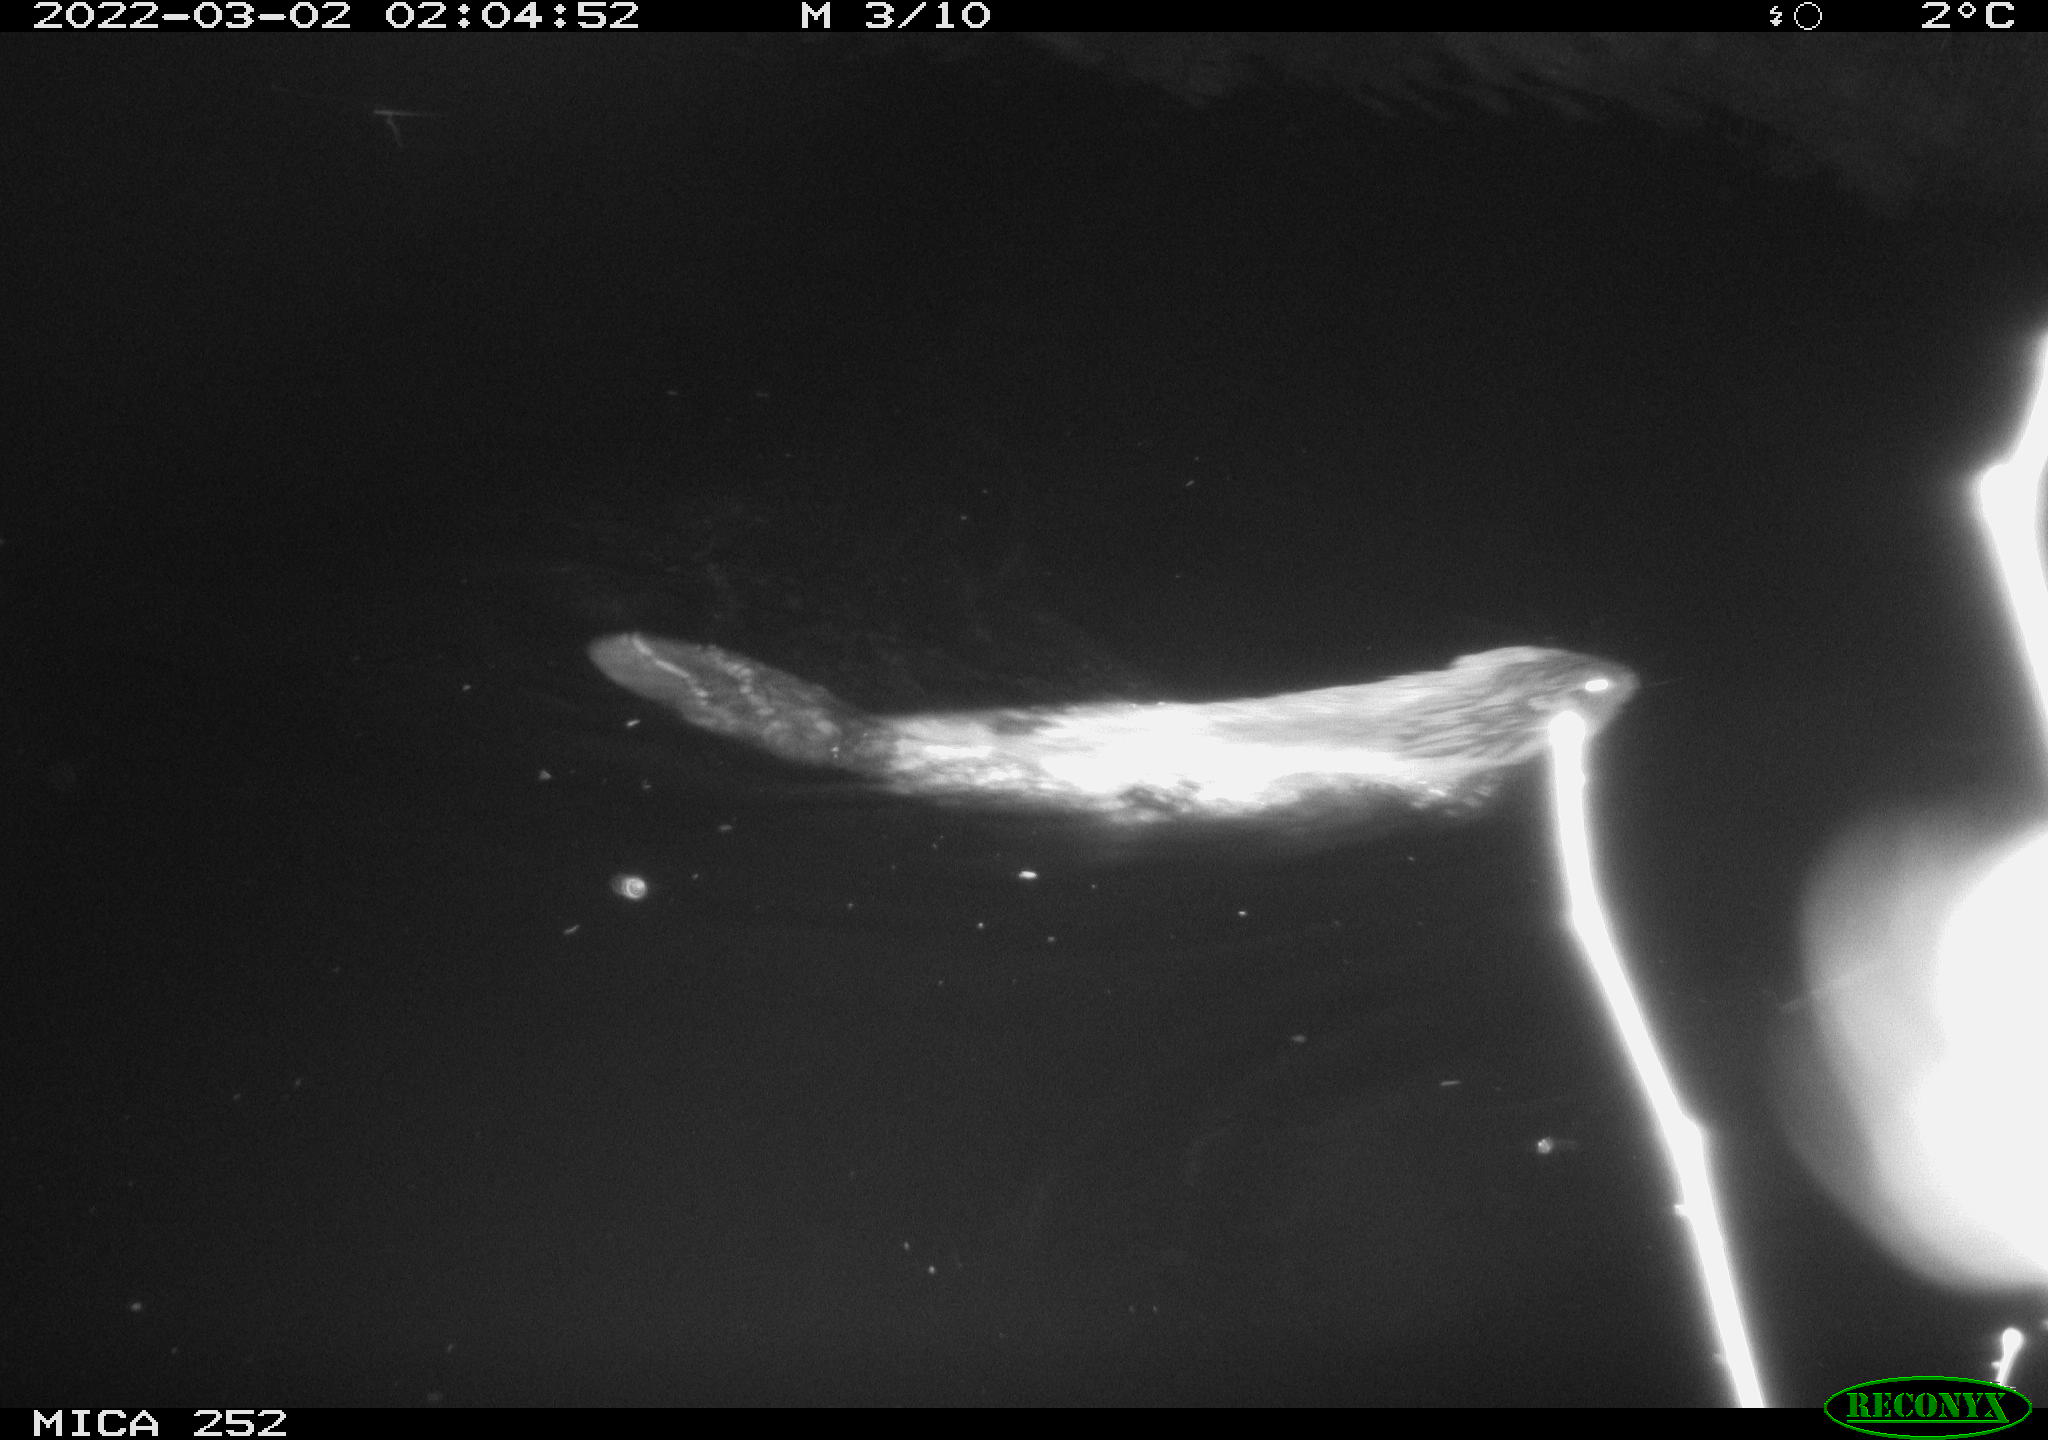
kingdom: Animalia
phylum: Chordata
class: Mammalia
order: Rodentia
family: Castoridae
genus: Castor
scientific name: Castor fiber
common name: Eurasian beaver
